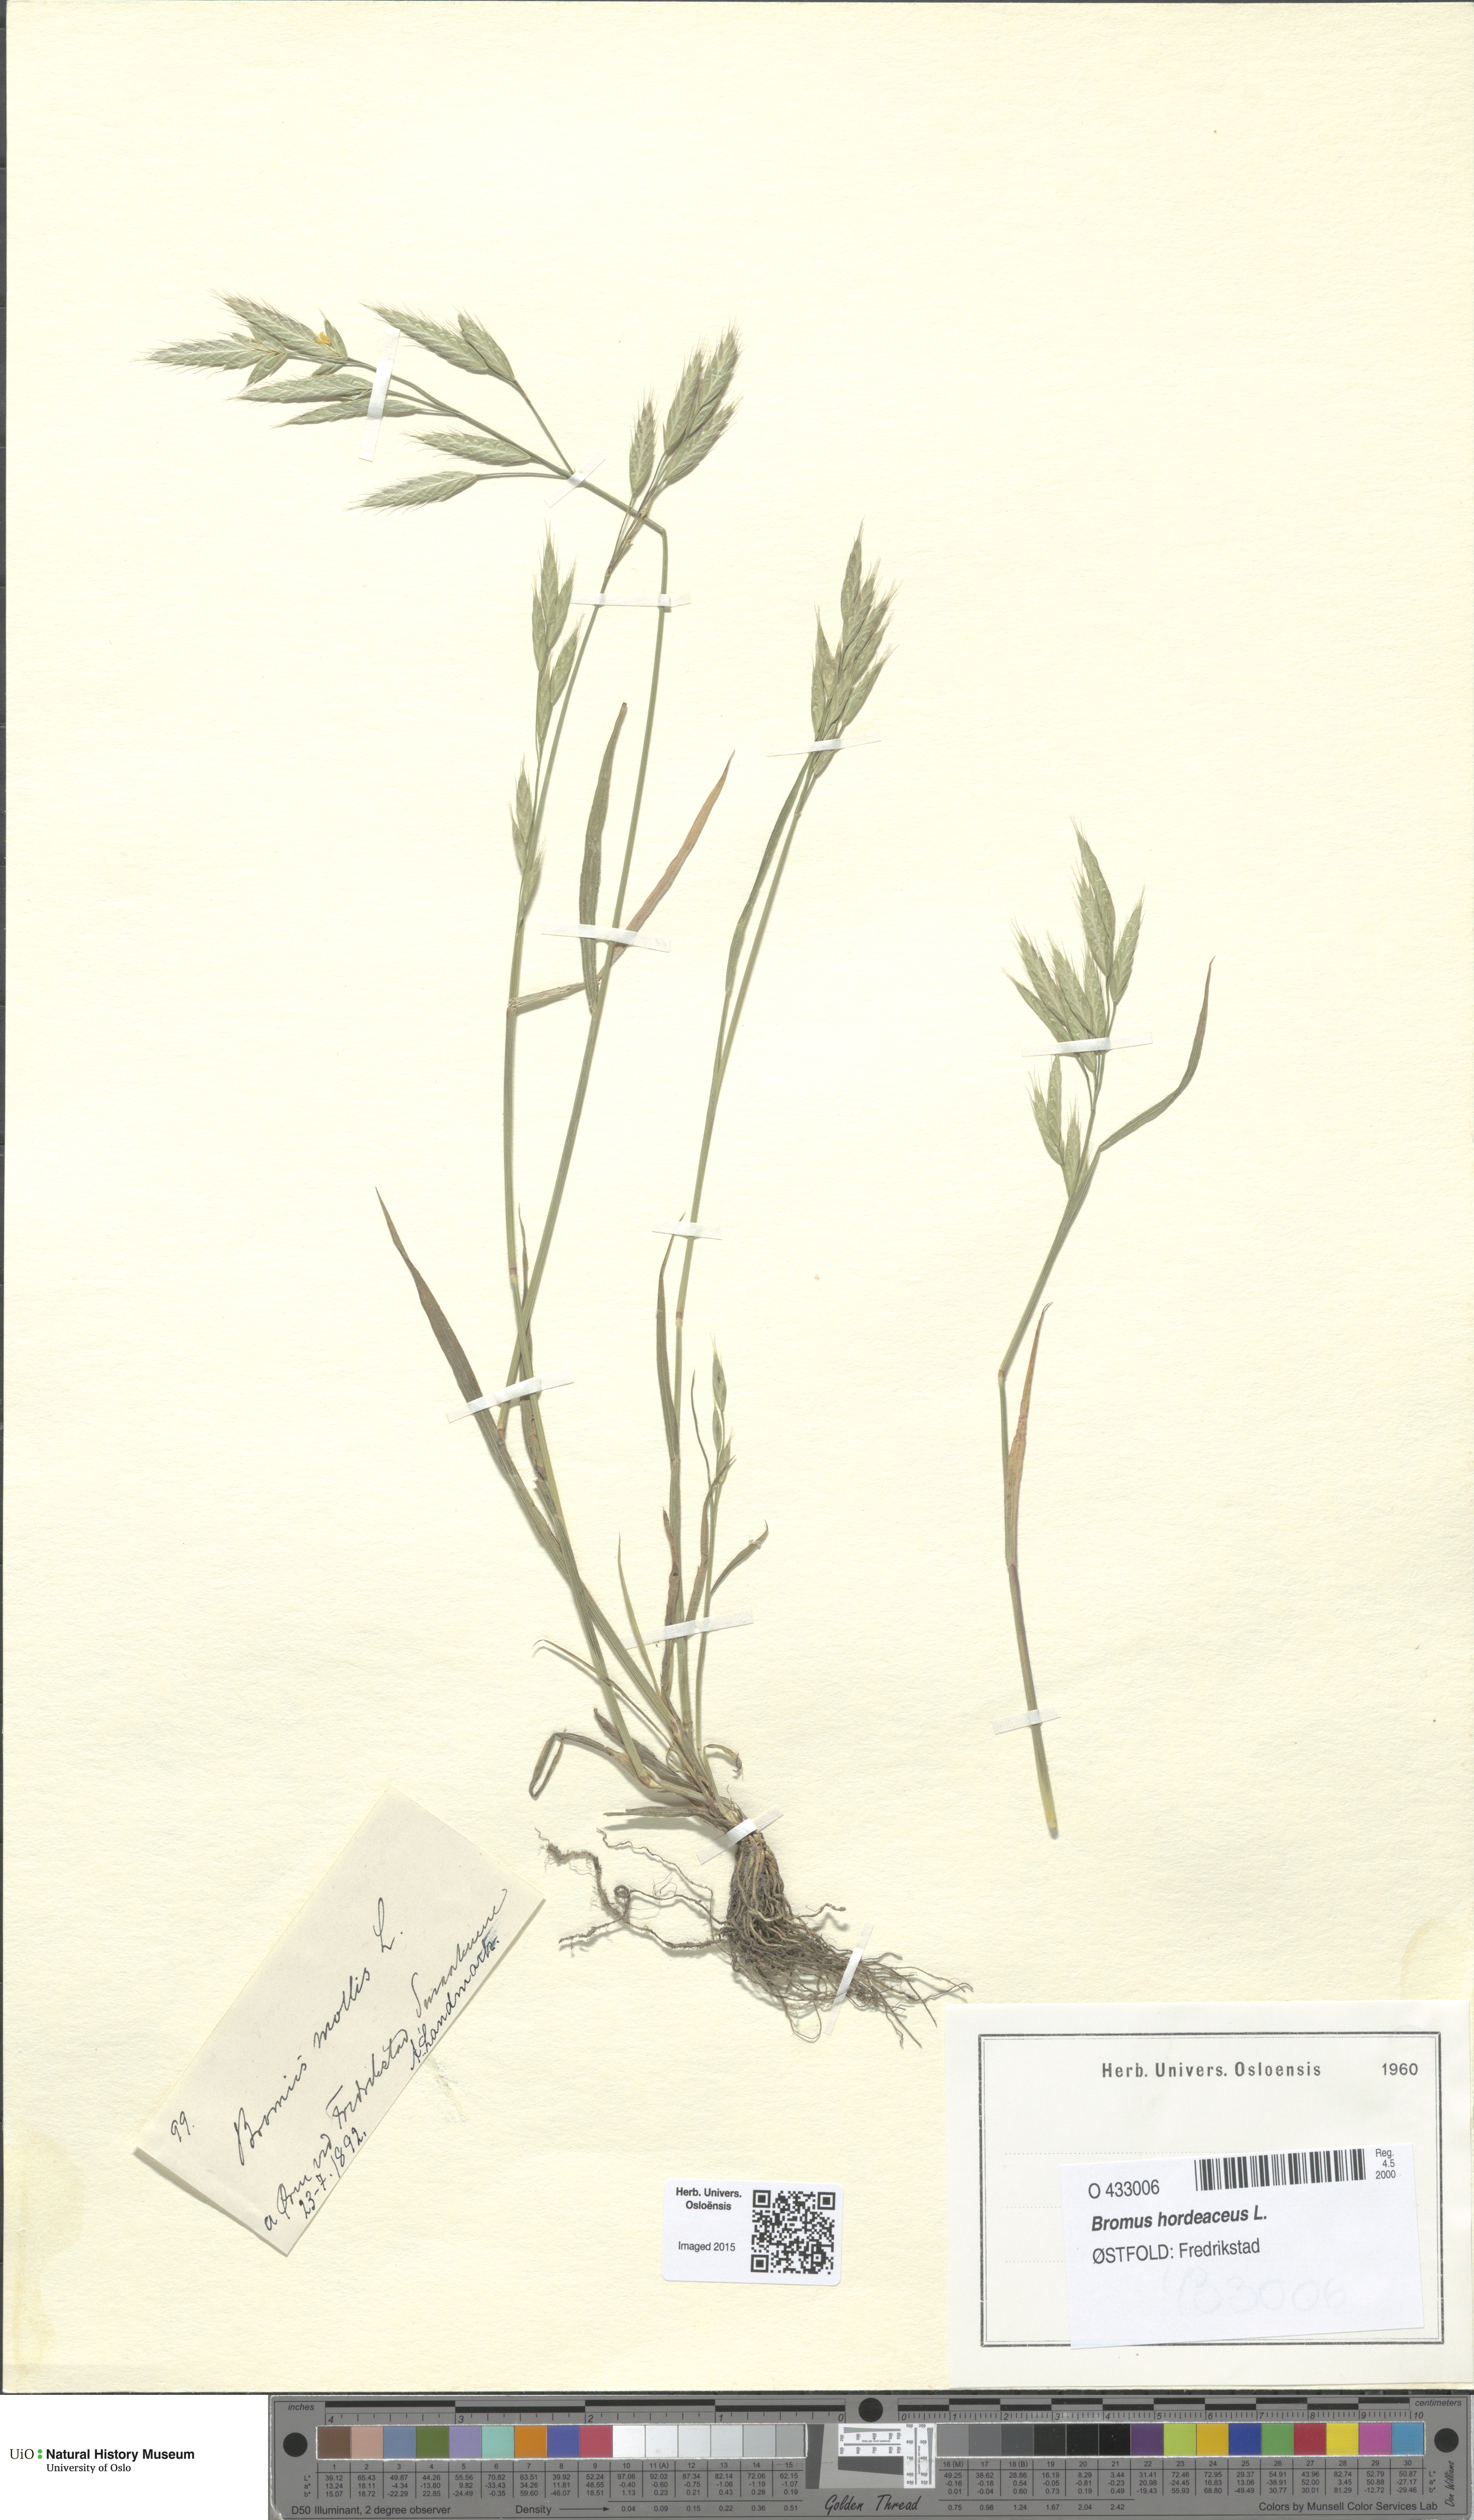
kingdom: Plantae
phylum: Tracheophyta
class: Liliopsida
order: Poales
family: Poaceae
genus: Bromus
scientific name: Bromus hordeaceus
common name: Soft brome
